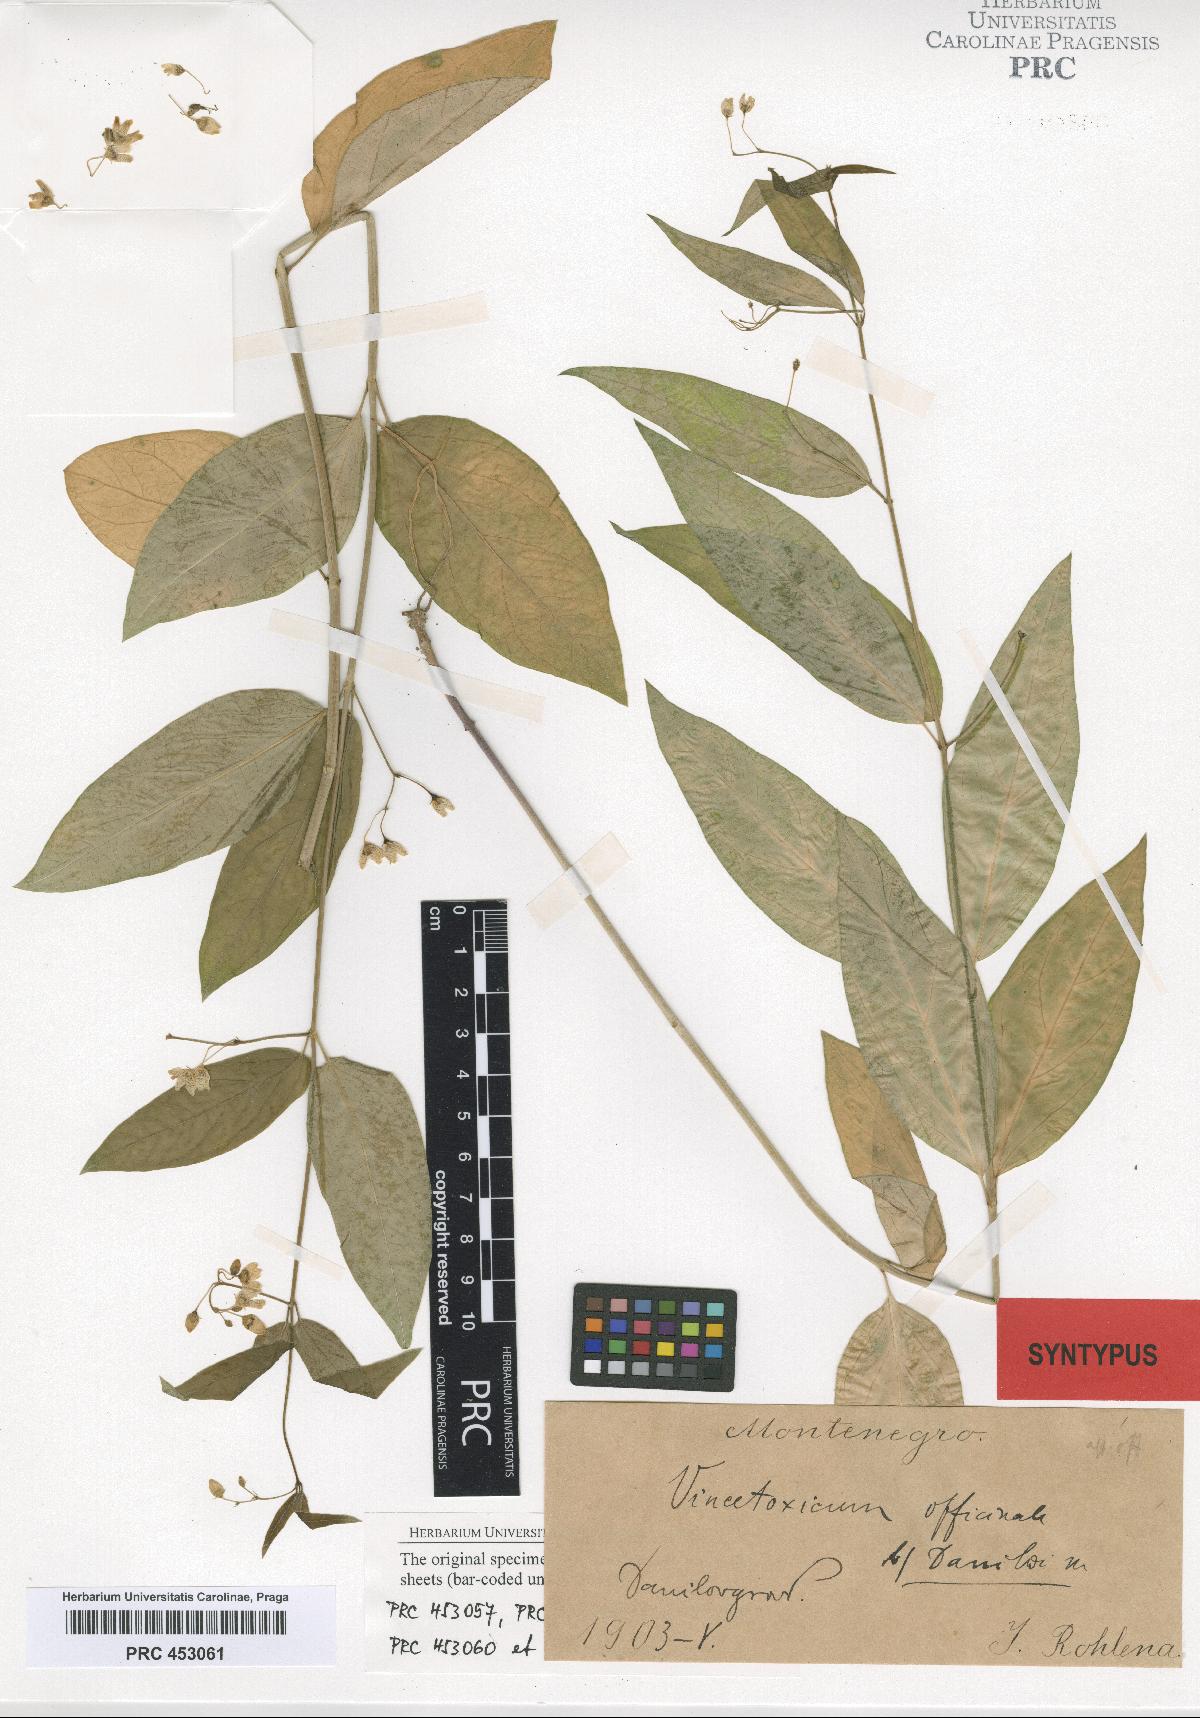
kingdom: Plantae
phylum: Tracheophyta
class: Magnoliopsida
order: Gentianales
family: Apocynaceae
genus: Vincetoxicum
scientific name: Vincetoxicum hirundinaria
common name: White swallowwort
